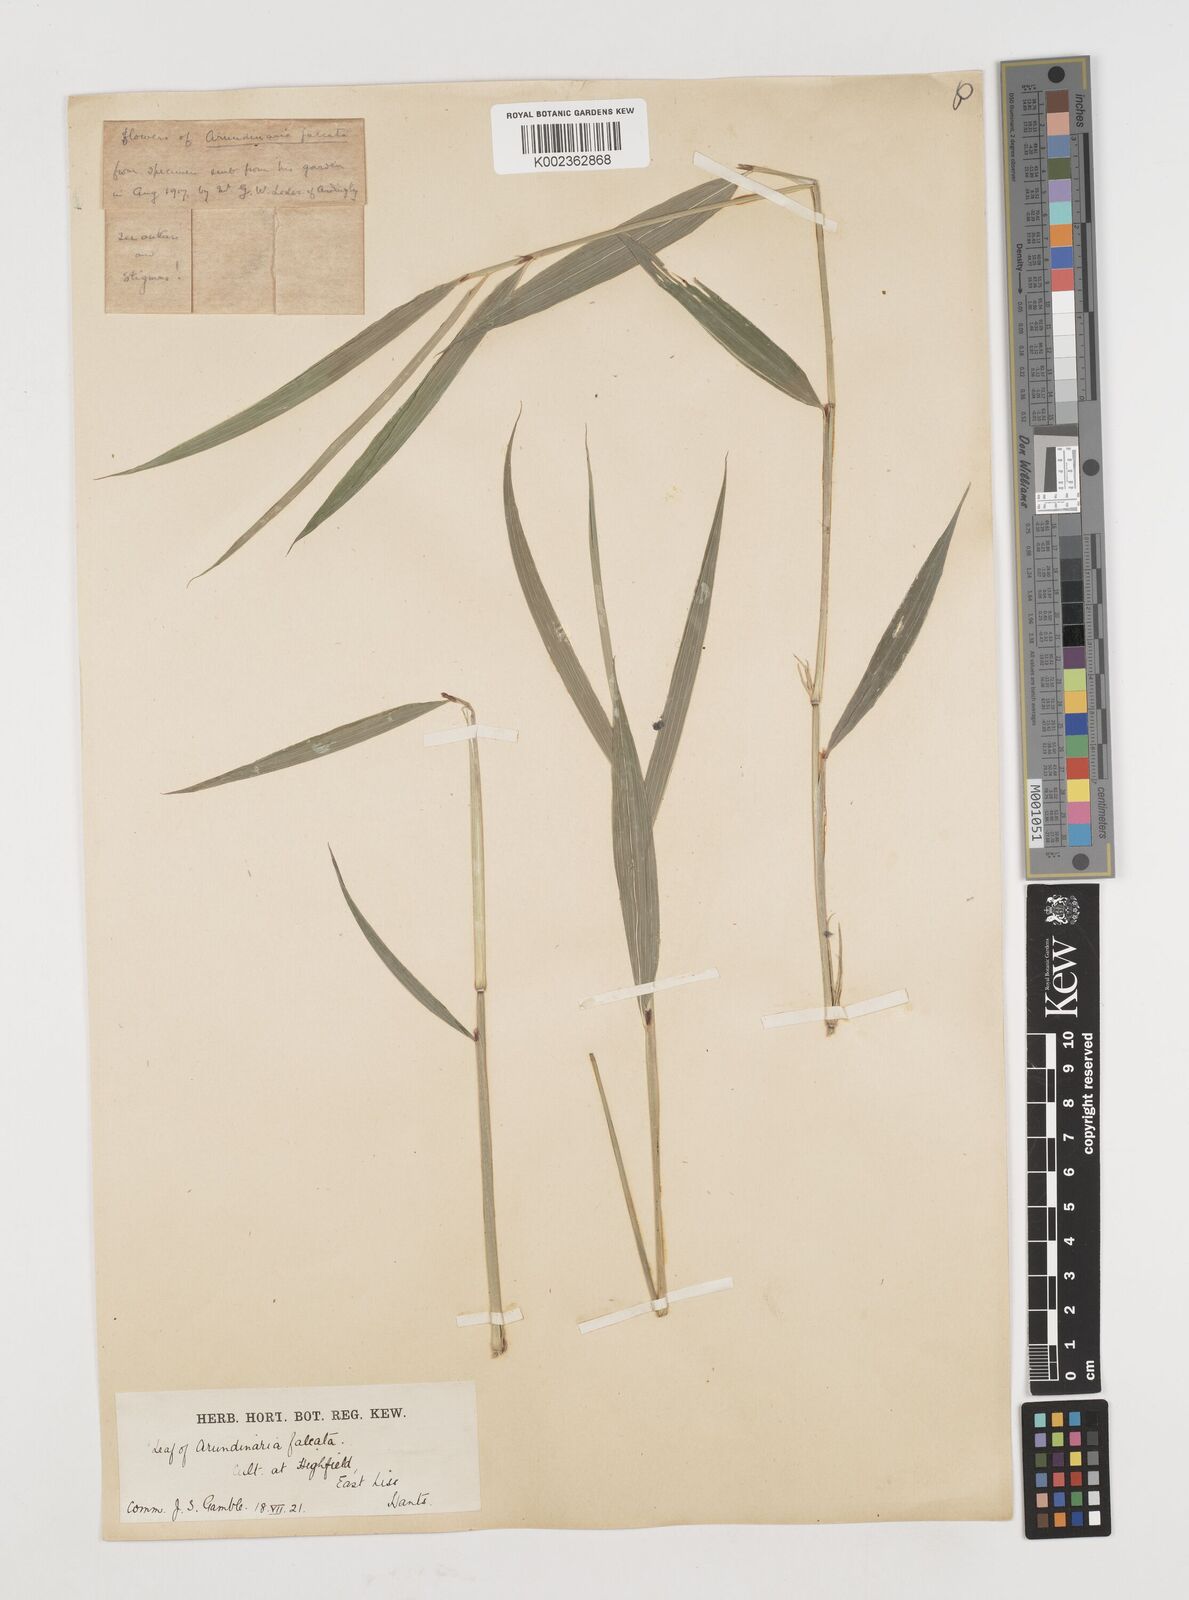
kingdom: Plantae
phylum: Tracheophyta
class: Liliopsida
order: Poales
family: Poaceae
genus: Drepanostachyum
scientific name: Drepanostachyum falcatum
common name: Himalayan bamboo
